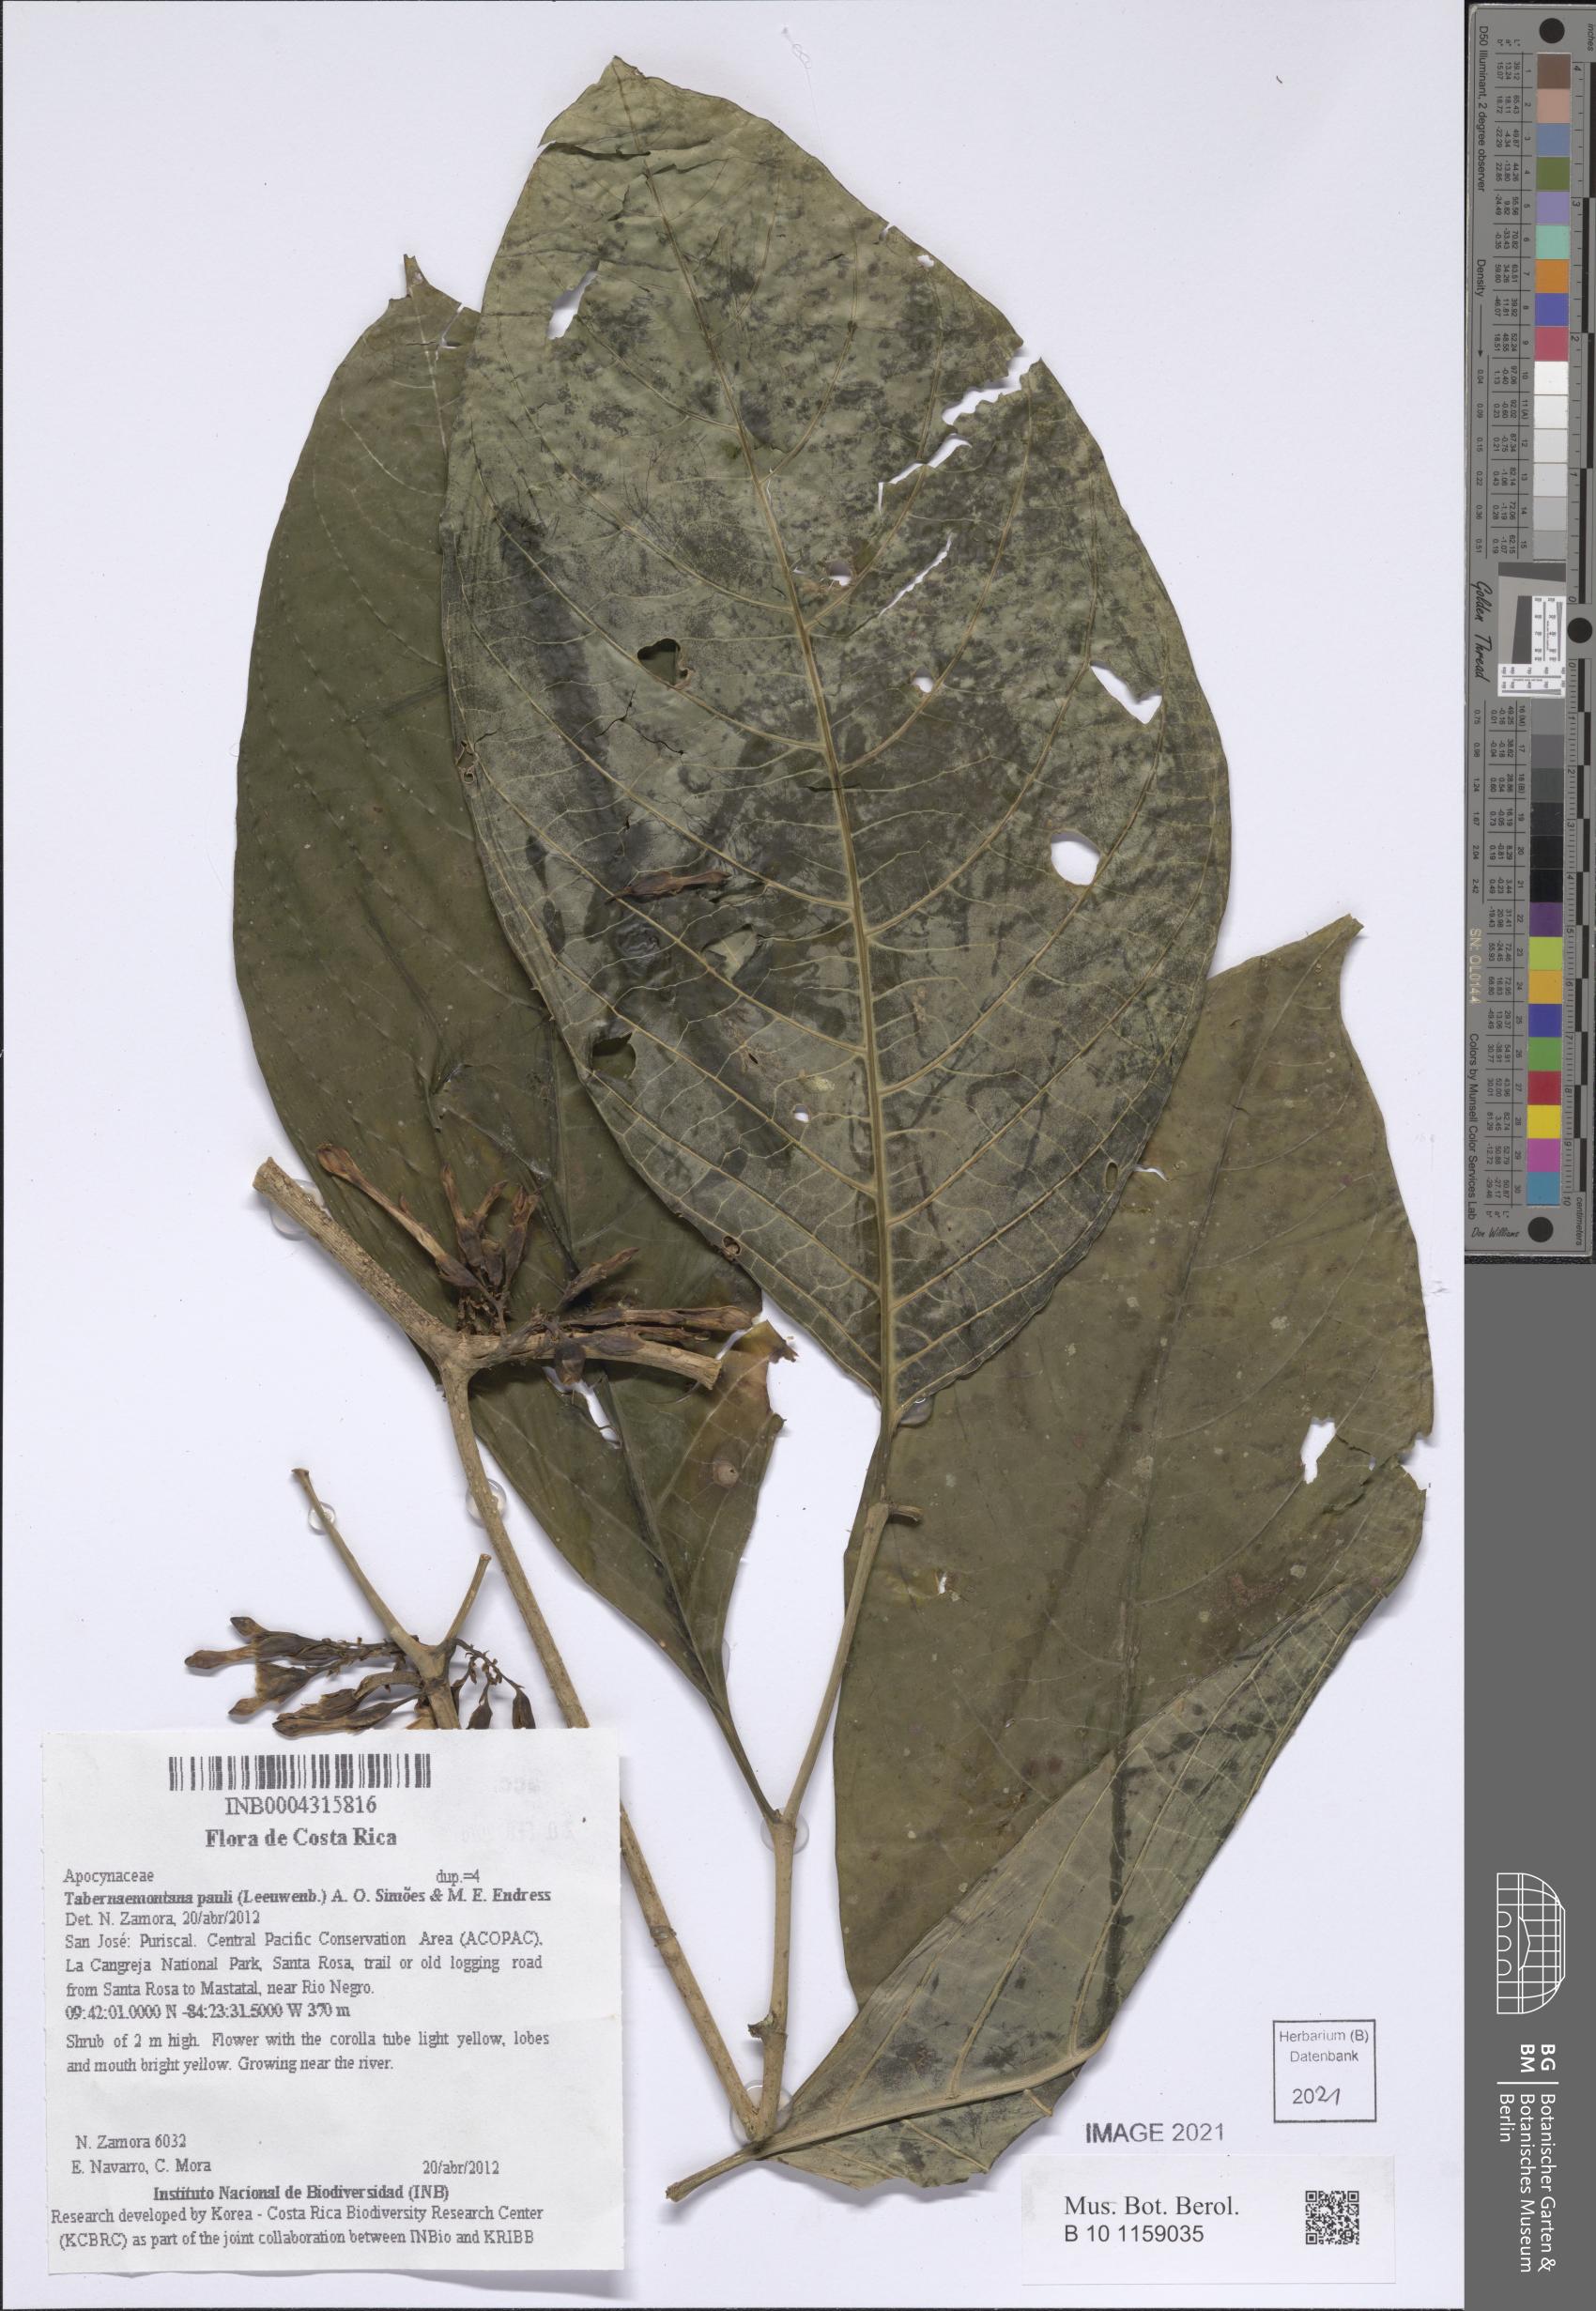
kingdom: Plantae
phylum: Tracheophyta
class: Magnoliopsida
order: Gentianales
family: Apocynaceae
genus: Tabernaemontana
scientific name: Tabernaemontana pauli
